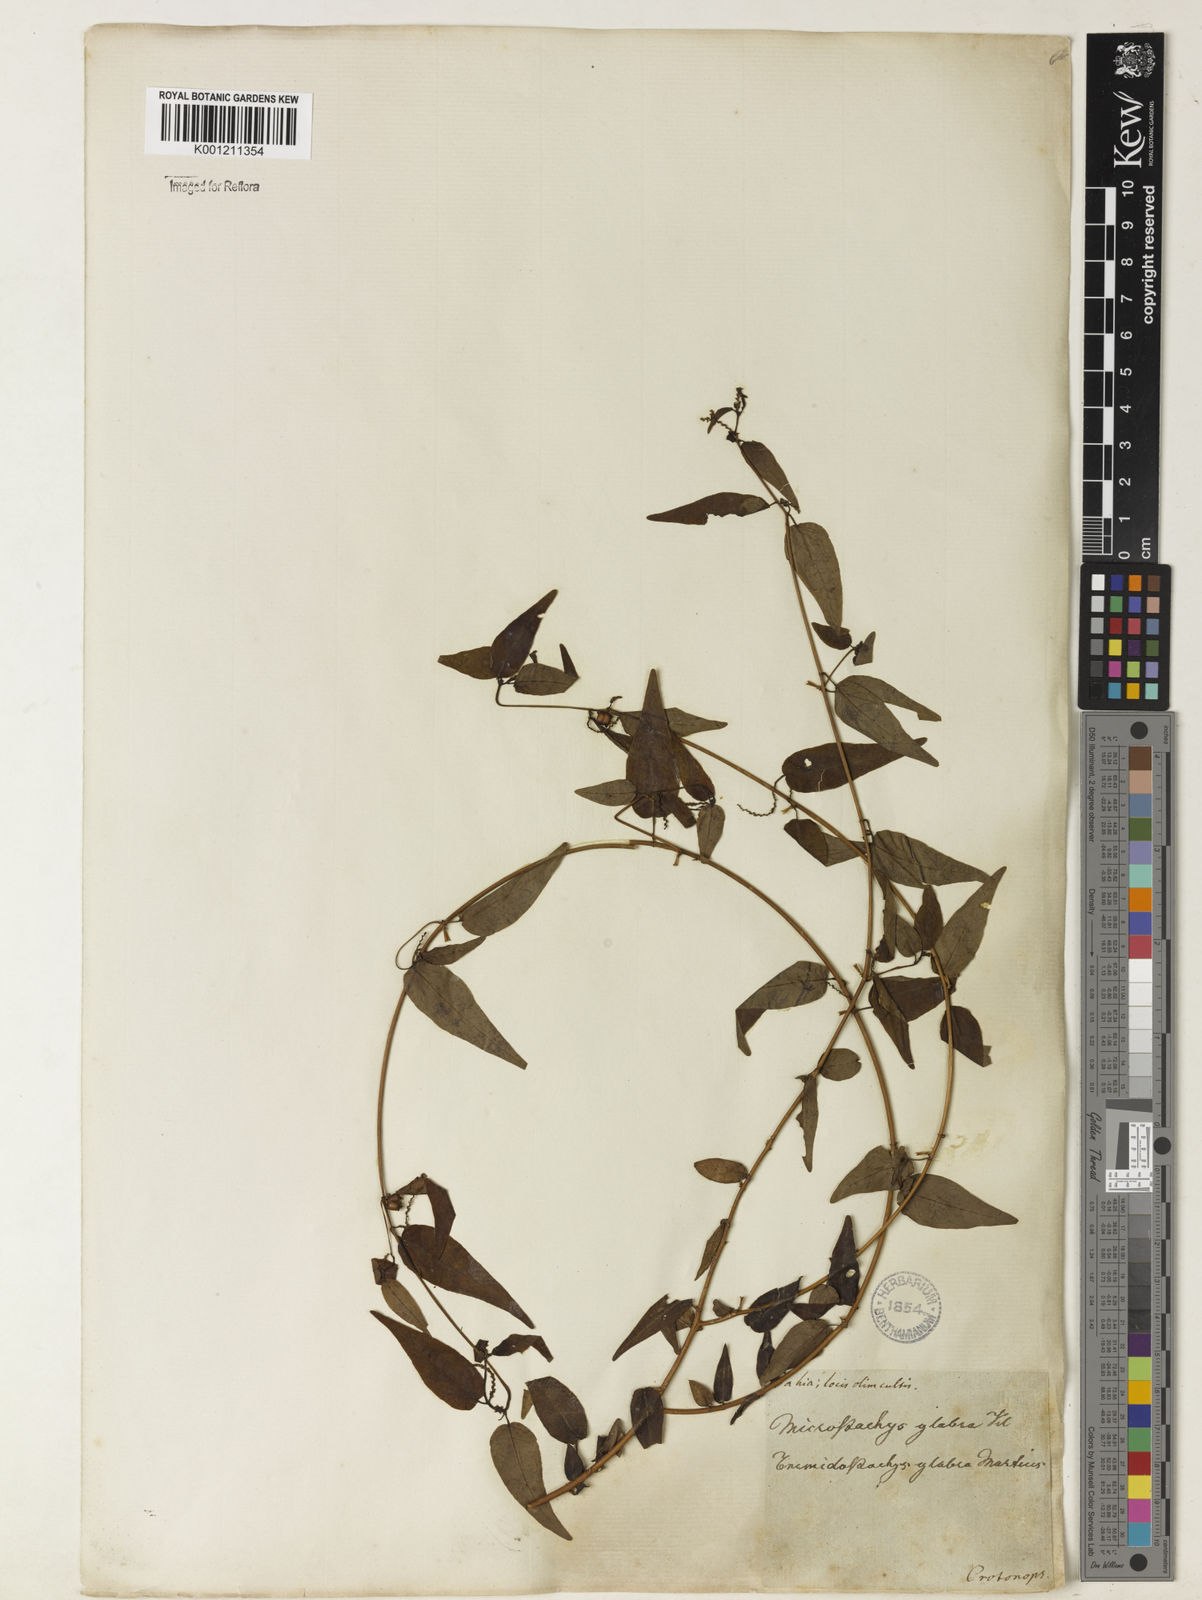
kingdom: Plantae
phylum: Tracheophyta
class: Magnoliopsida
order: Malpighiales
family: Euphorbiaceae
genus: Microstachys
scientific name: Microstachys corniculata
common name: Hato tejas
